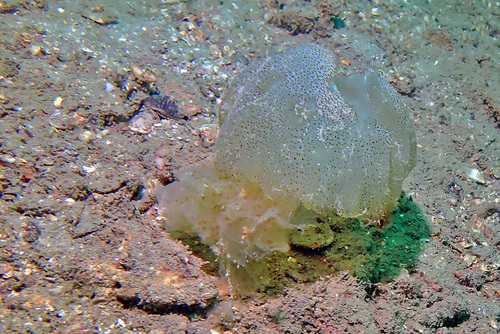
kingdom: Animalia
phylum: Cnidaria
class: Scyphozoa
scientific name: Scyphozoa
